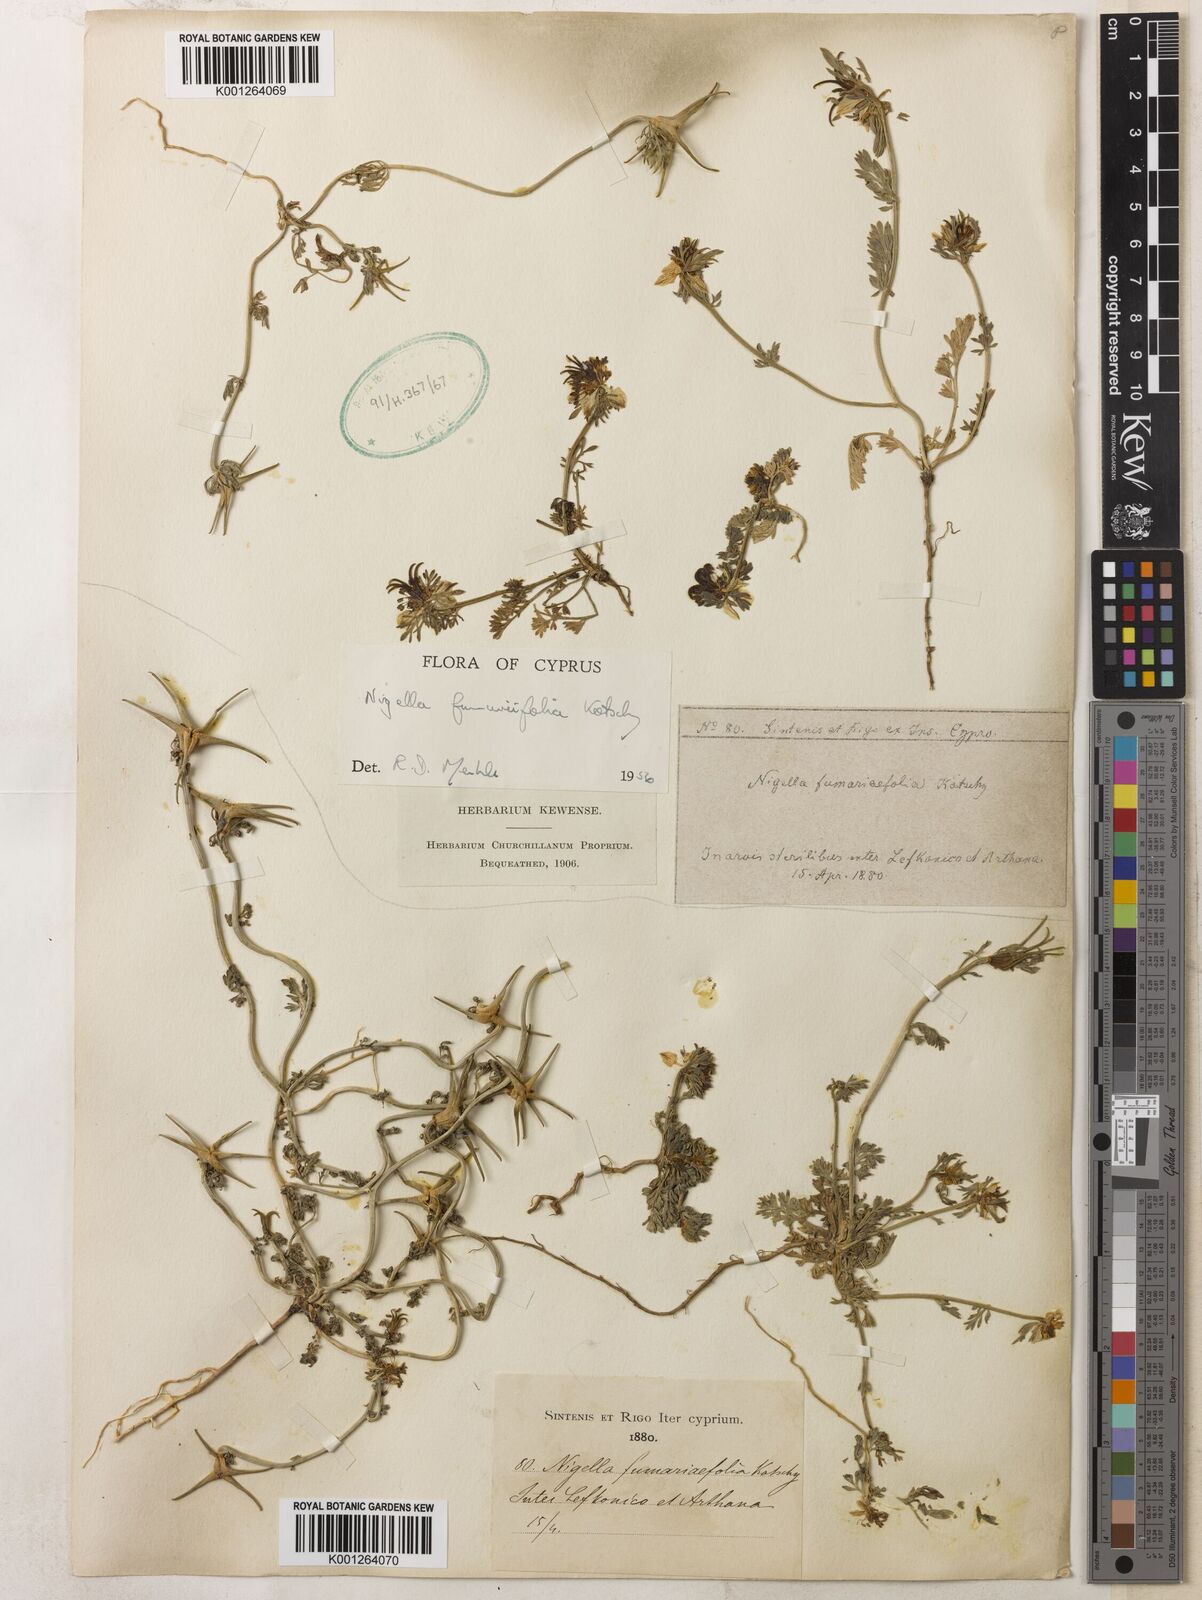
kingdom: Plantae
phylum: Tracheophyta
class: Magnoliopsida
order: Ranunculales
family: Ranunculaceae
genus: Nigella
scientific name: Nigella
